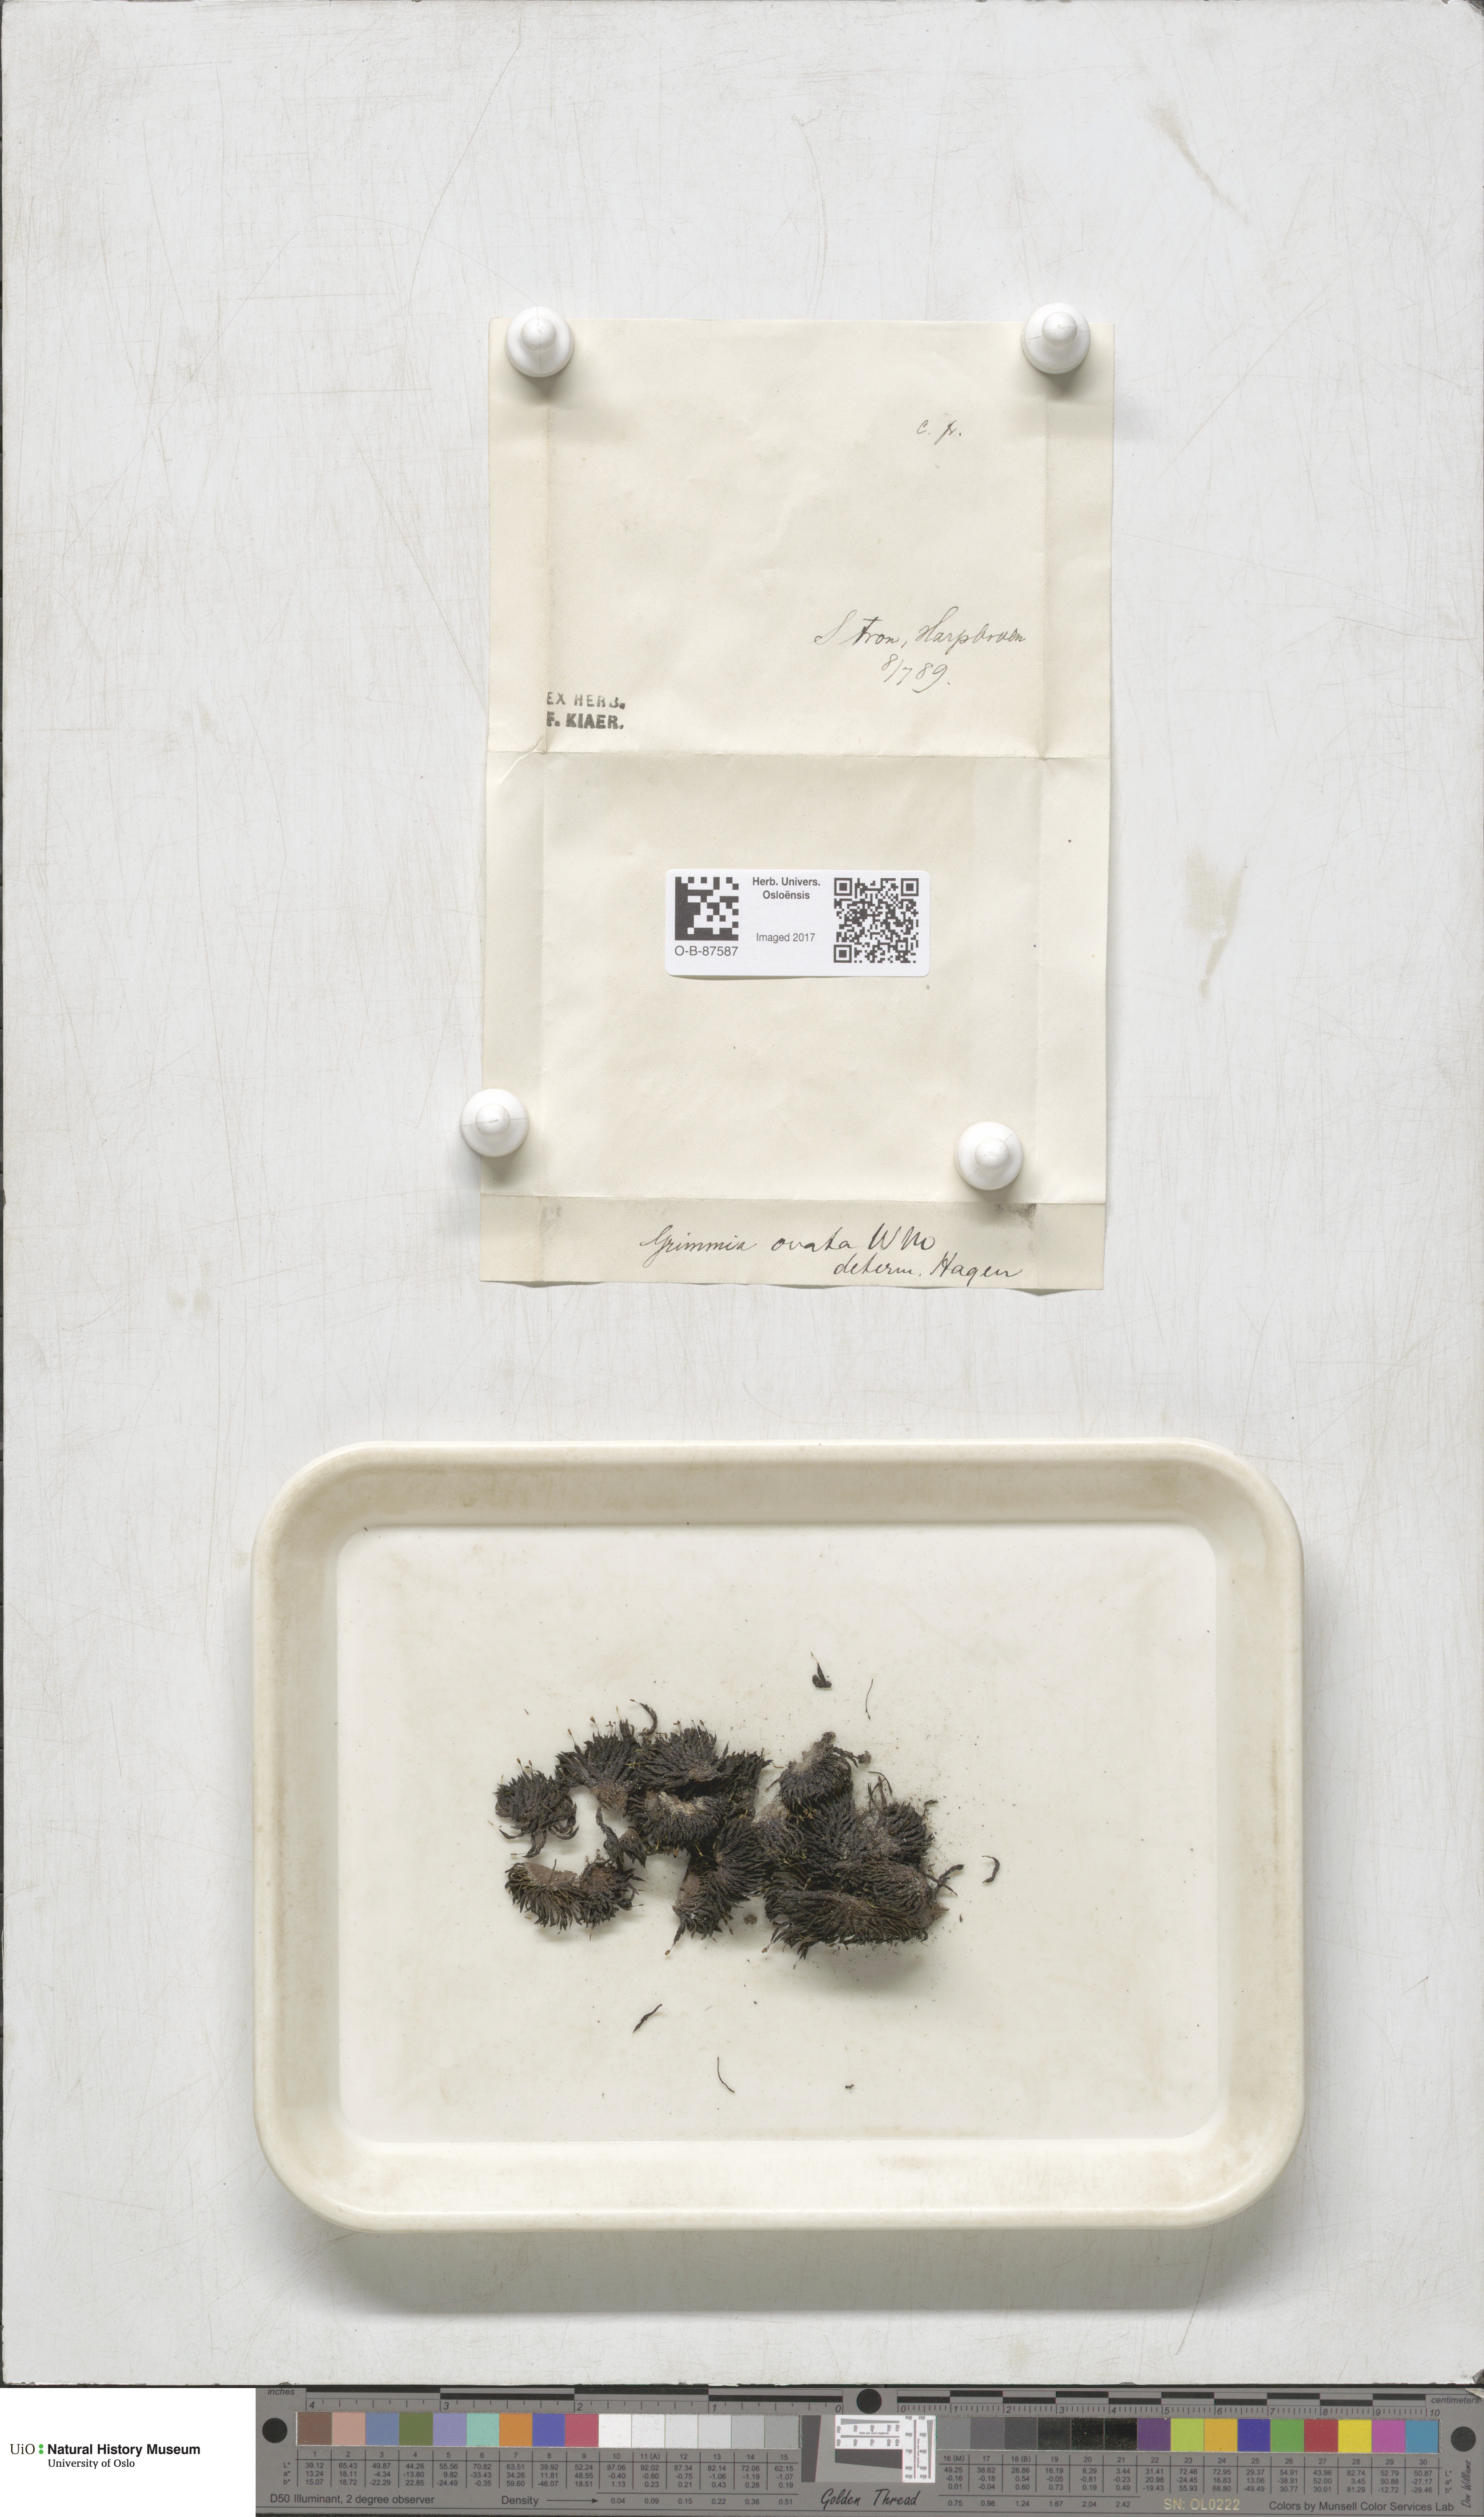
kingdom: Plantae
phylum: Bryophyta
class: Bryopsida
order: Grimmiales
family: Grimmiaceae
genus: Grimmia
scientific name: Grimmia ovalis
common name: Oval grimmia
